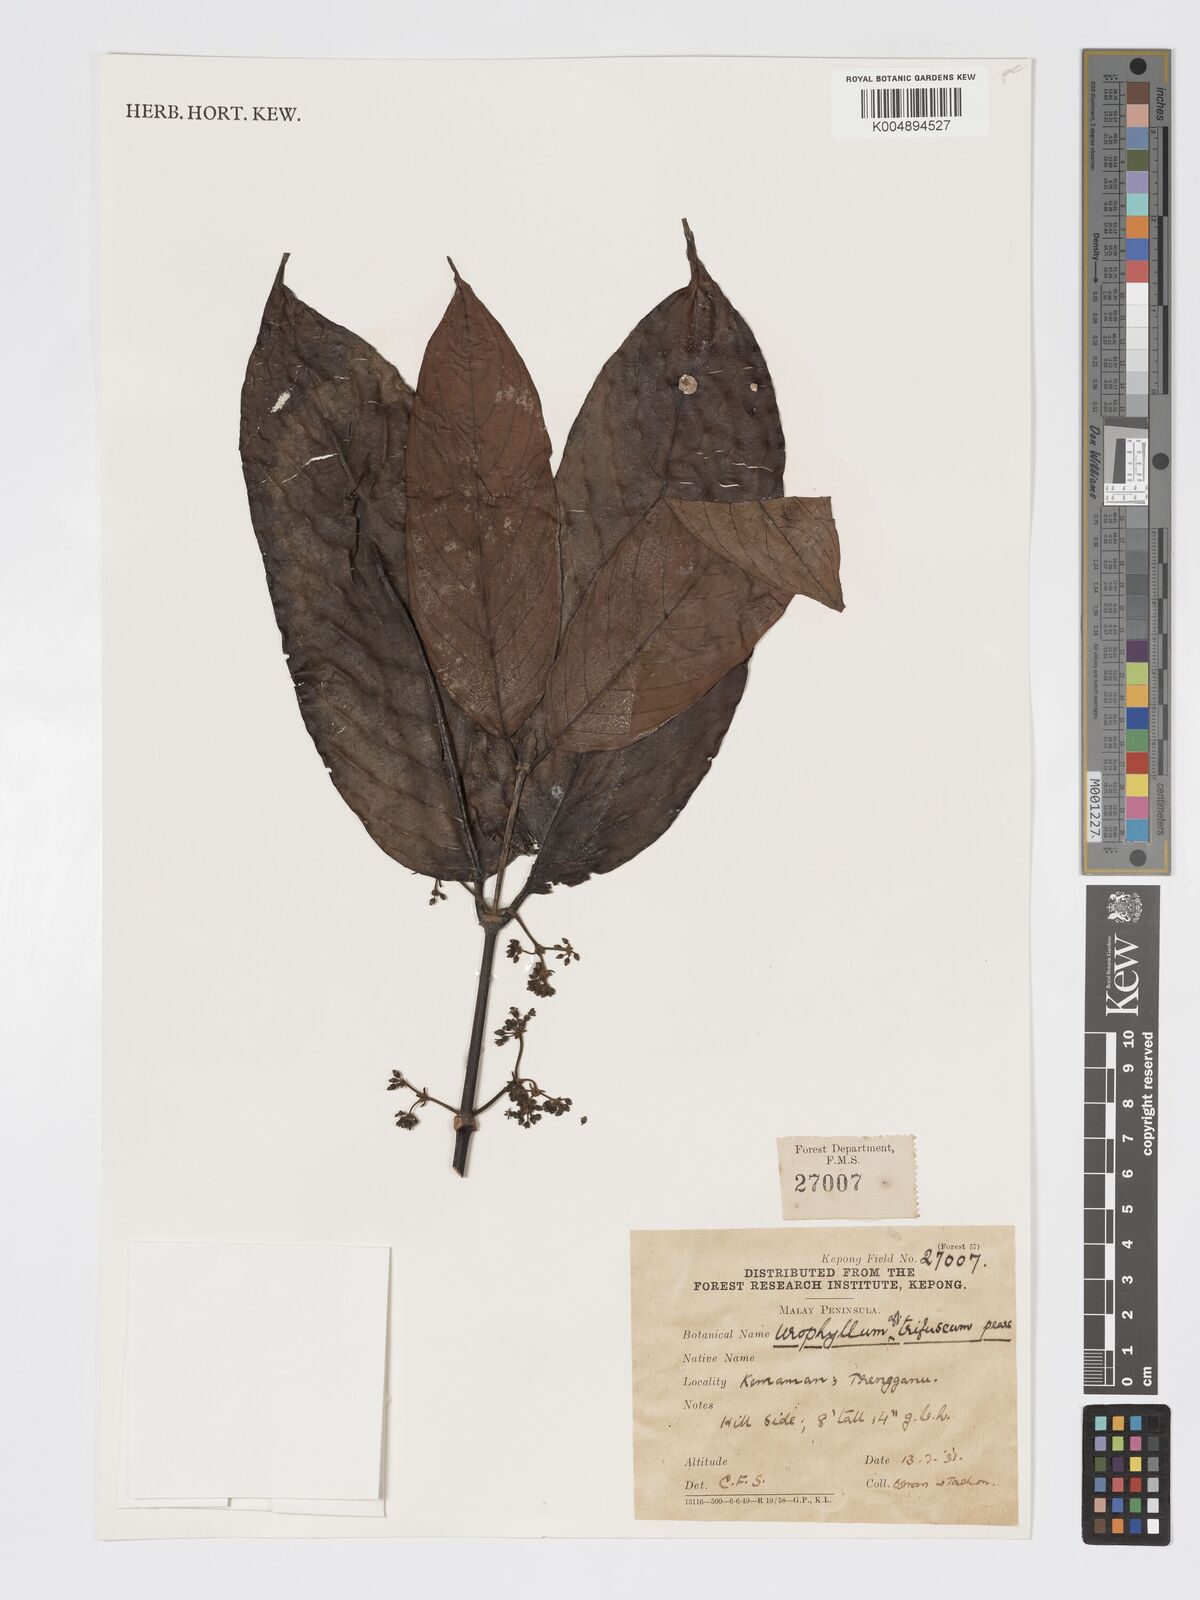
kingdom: Plantae
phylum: Tracheophyta
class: Magnoliopsida
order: Gentianales
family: Rubiaceae
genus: Urophyllum
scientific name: Urophyllum malayense
